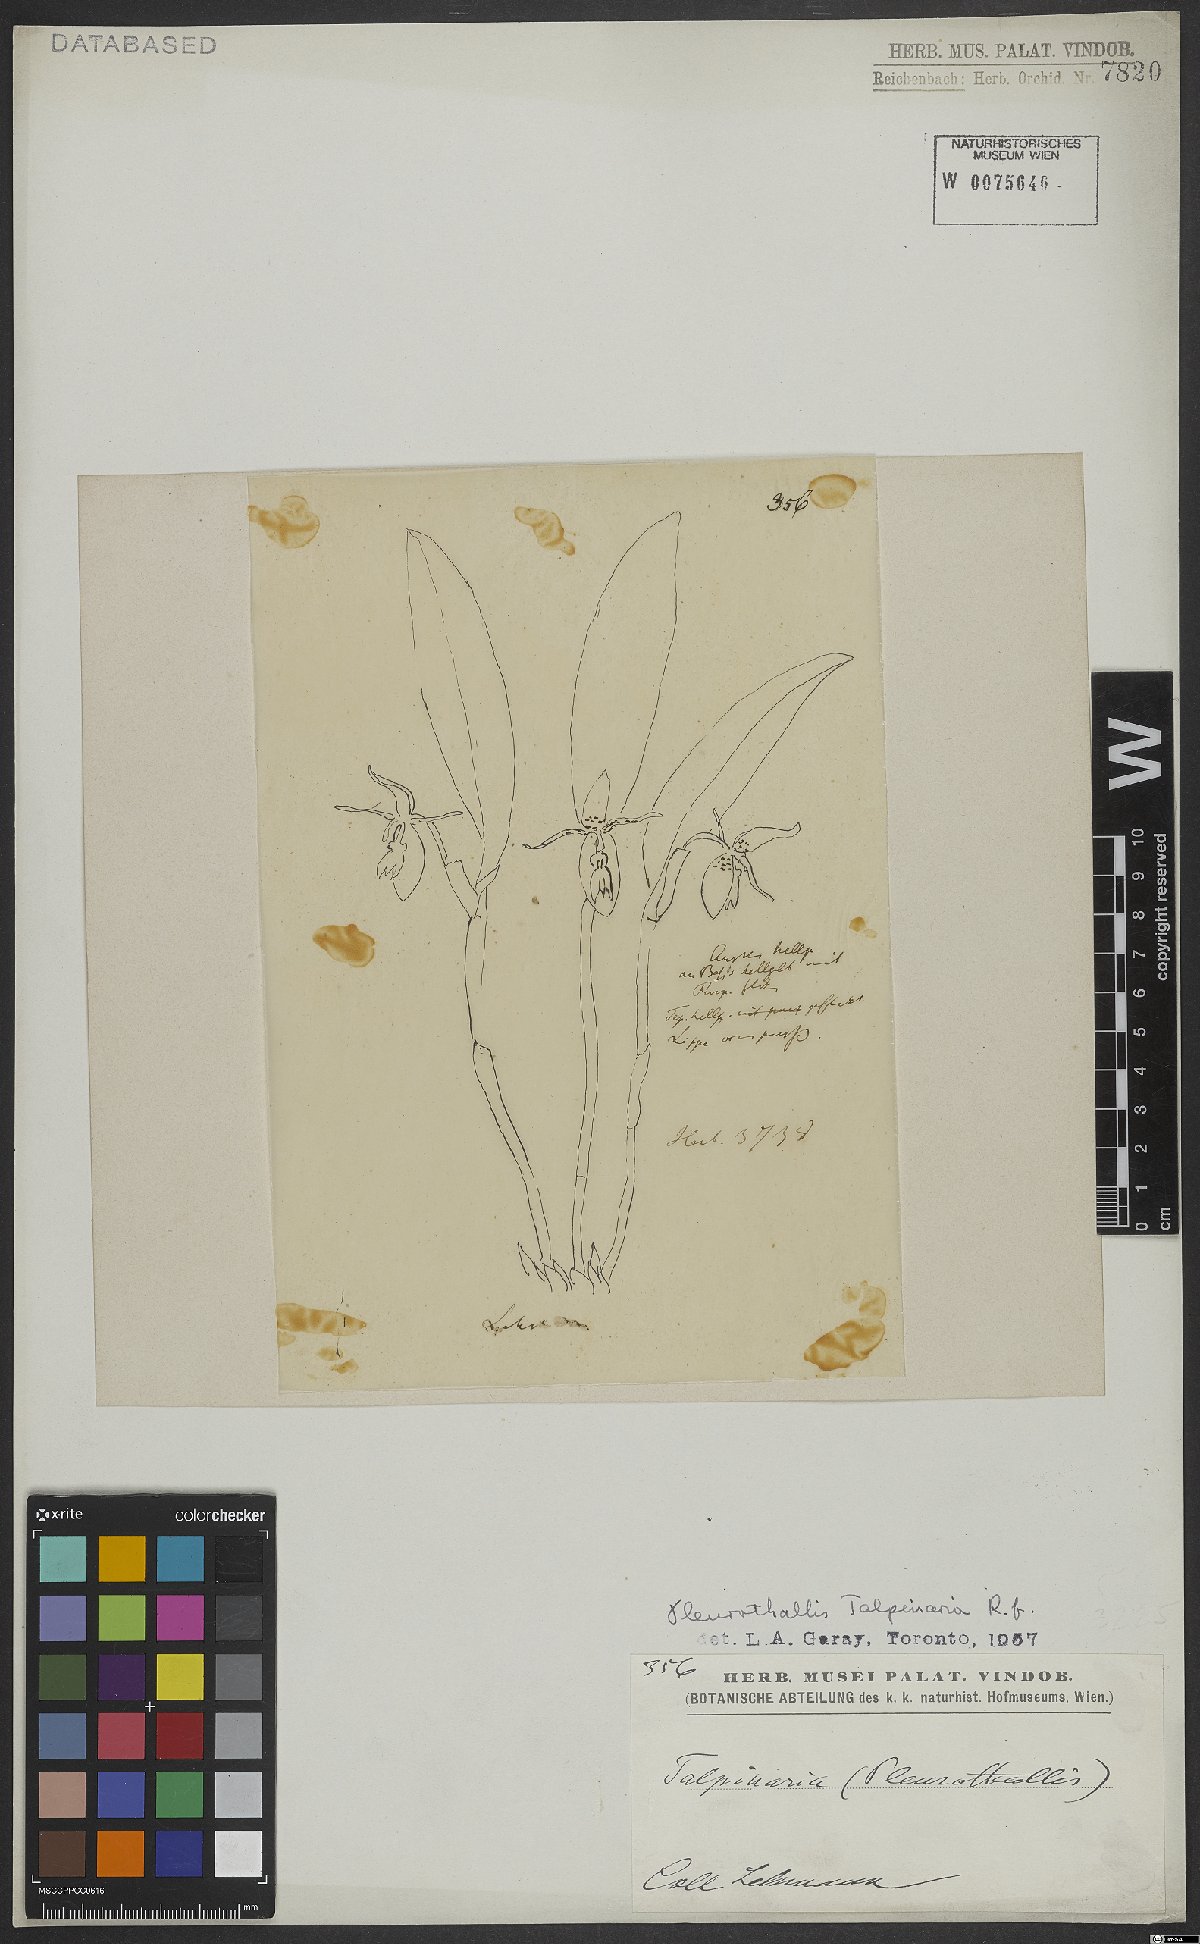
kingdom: Plantae
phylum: Tracheophyta
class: Liliopsida
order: Asparagales
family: Orchidaceae
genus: Pleurothallis
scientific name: Pleurothallis talpinaria
